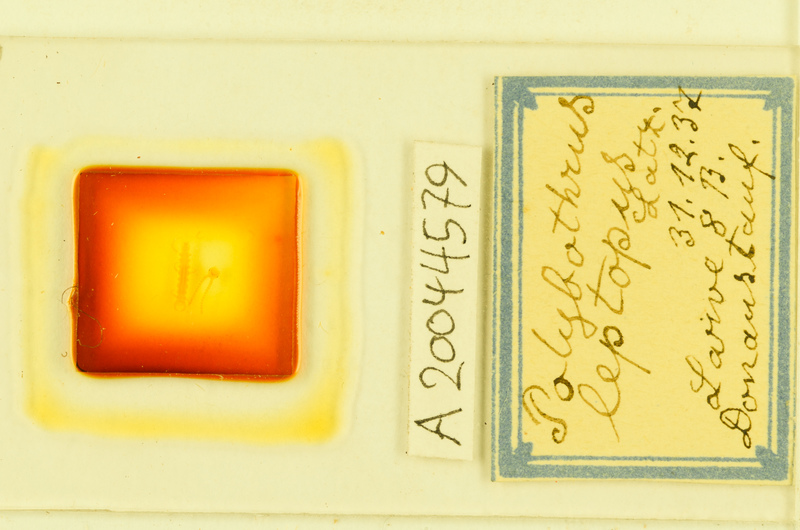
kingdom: Animalia
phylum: Arthropoda
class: Chilopoda
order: Lithobiomorpha
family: Lithobiidae
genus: Polybothrus
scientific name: Polybothrus leptopus
